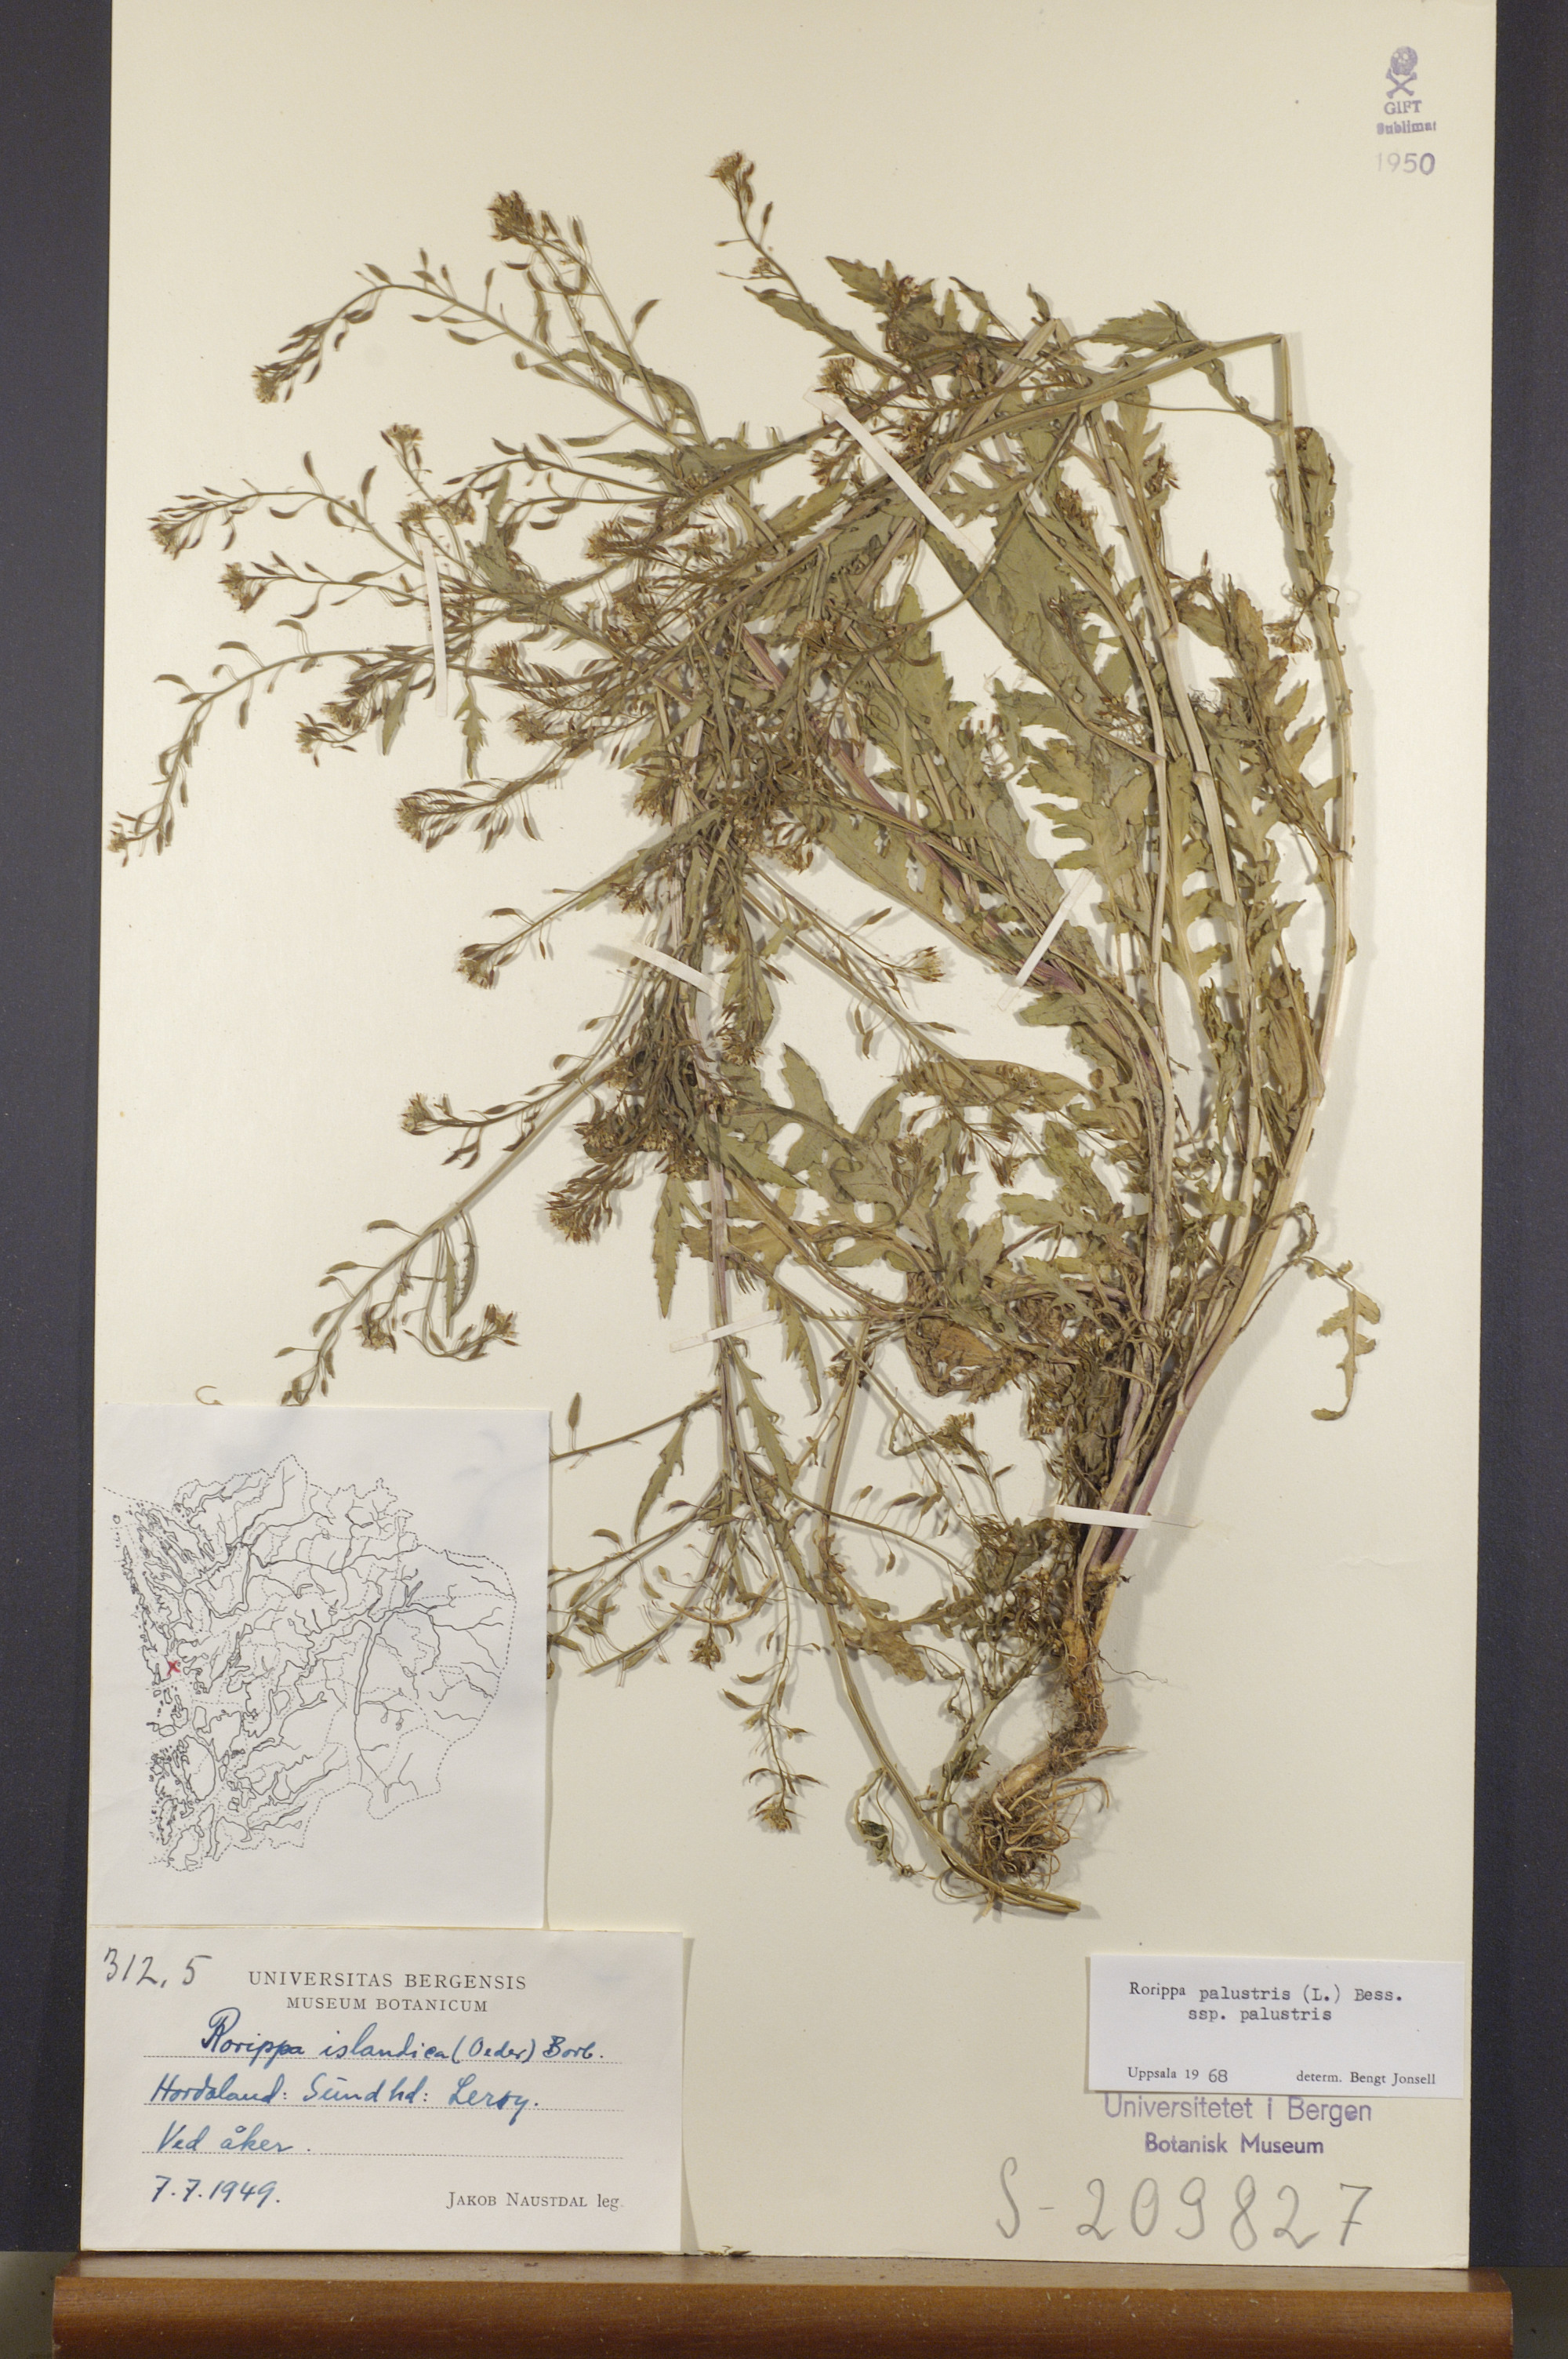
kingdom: Plantae
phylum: Tracheophyta
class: Magnoliopsida
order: Brassicales
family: Brassicaceae
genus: Rorippa
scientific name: Rorippa palustris
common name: Marsh yellow-cress
